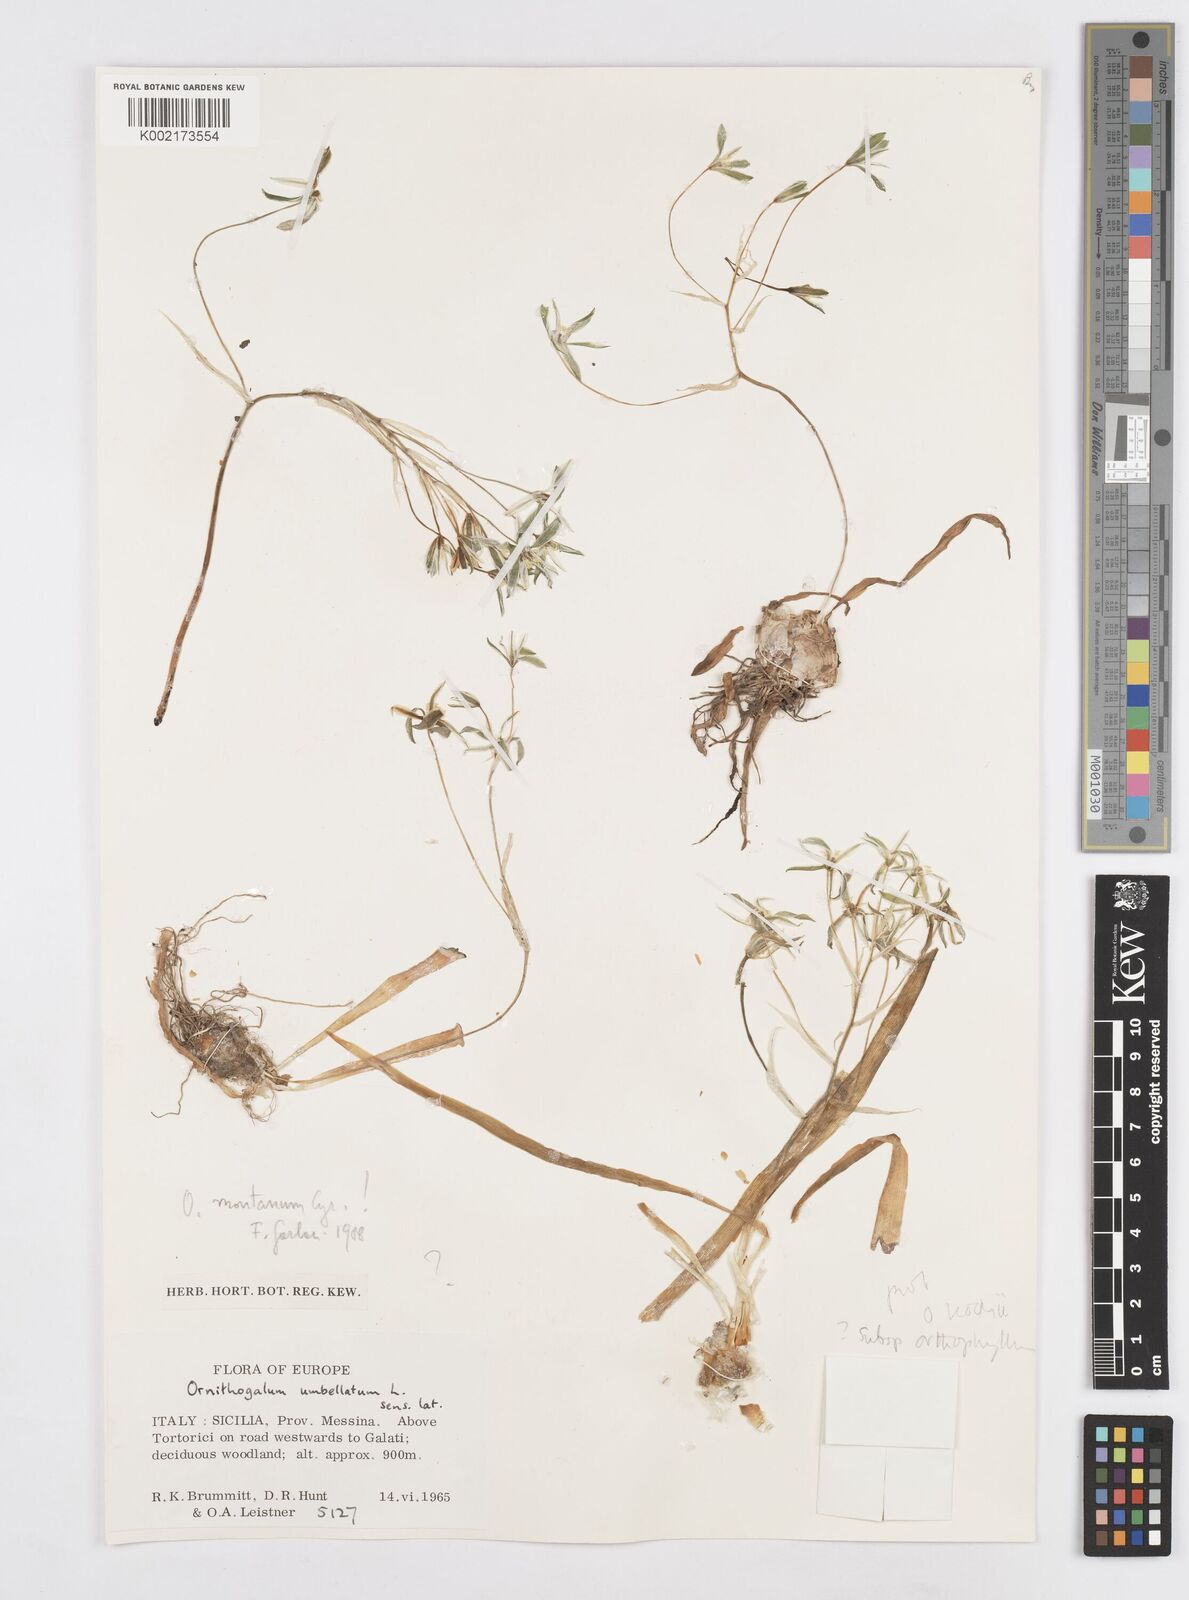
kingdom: Plantae
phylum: Tracheophyta
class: Liliopsida
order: Asparagales
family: Asparagaceae
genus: Ornithogalum
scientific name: Ornithogalum gussonei
